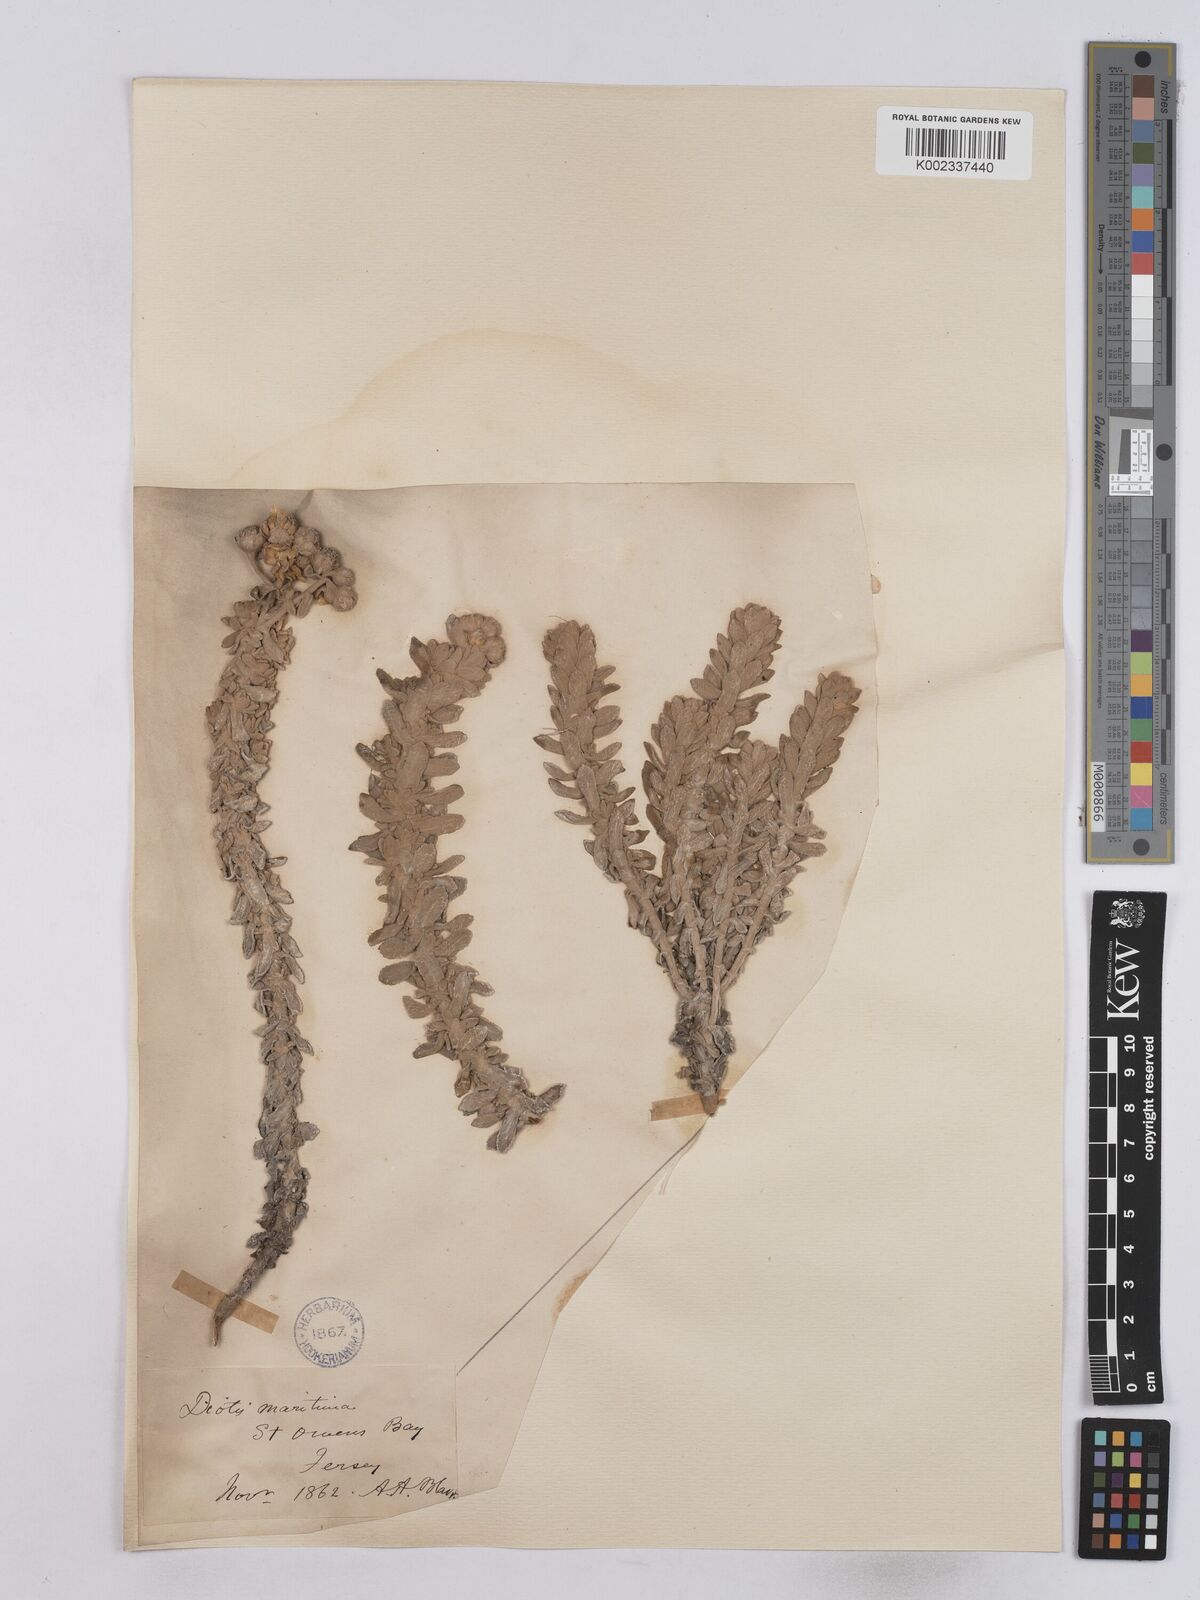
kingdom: Plantae
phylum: Tracheophyta
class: Magnoliopsida
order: Asterales
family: Asteraceae
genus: Achillea
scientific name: Achillea maritima
